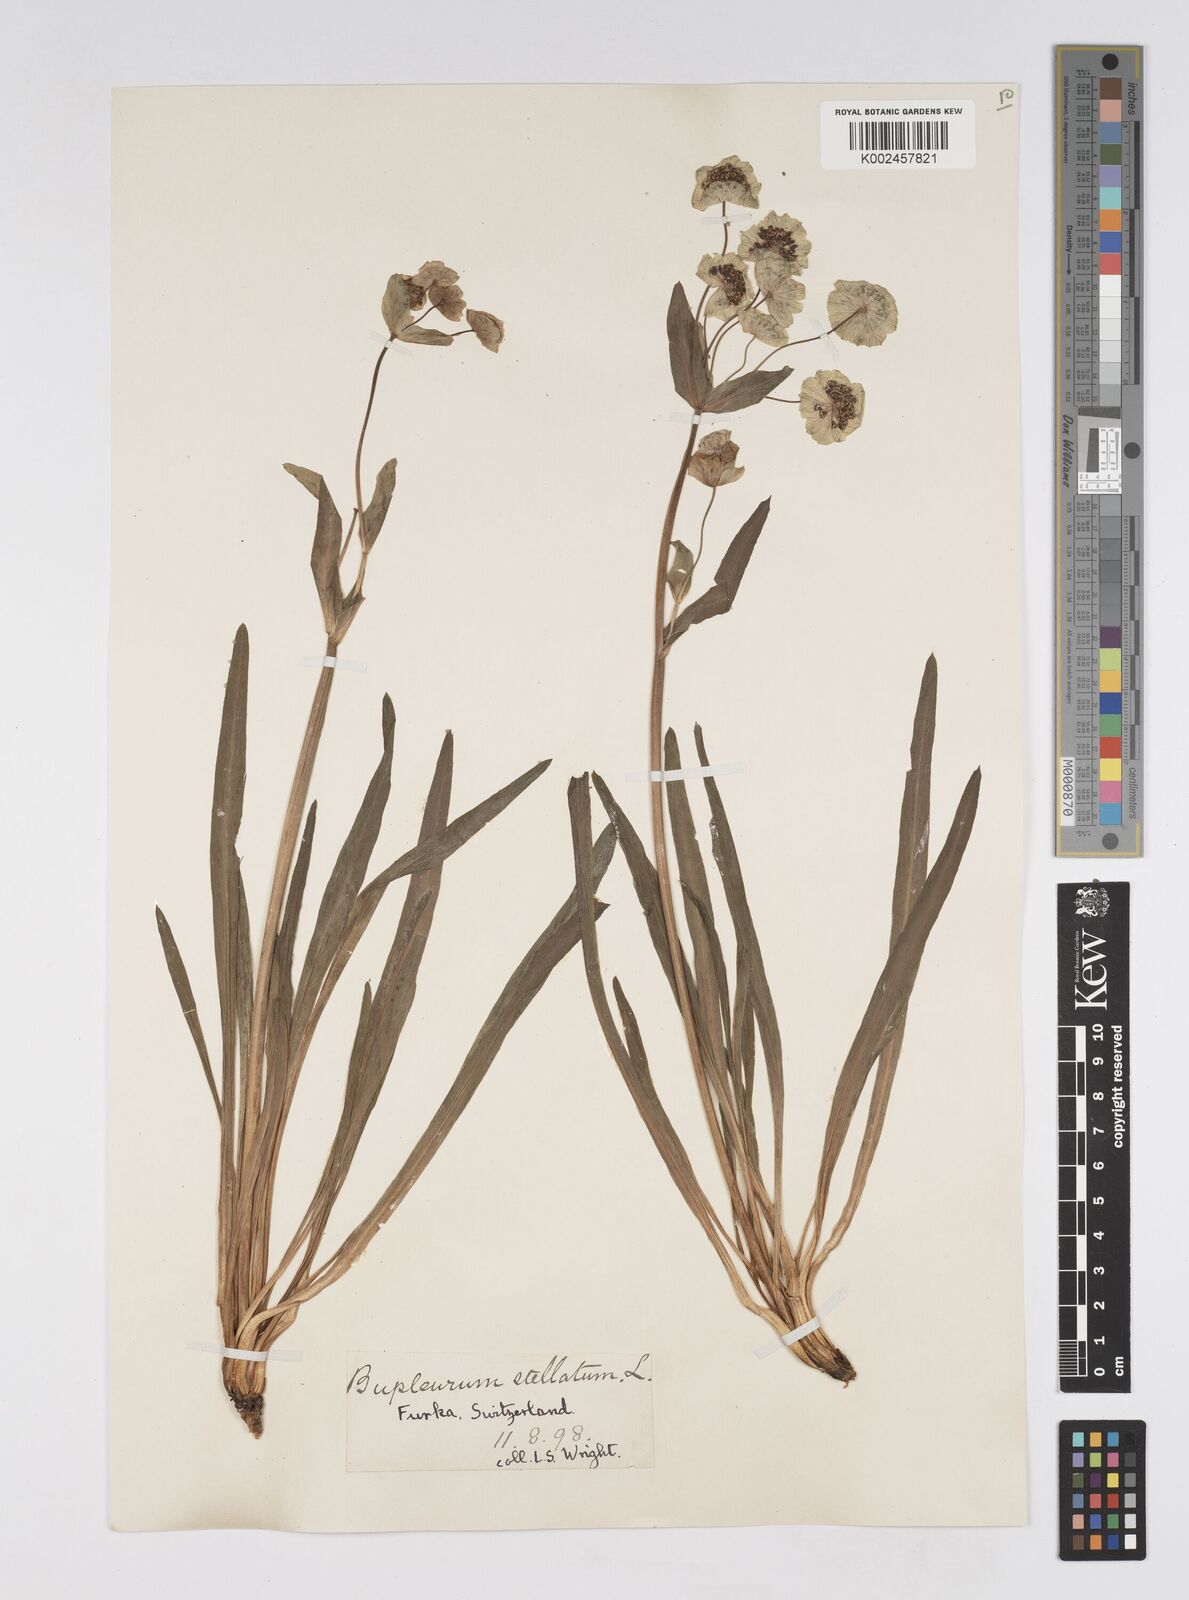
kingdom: Plantae
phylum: Tracheophyta
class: Magnoliopsida
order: Apiales
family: Apiaceae
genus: Bupleurum
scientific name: Bupleurum stellatum
